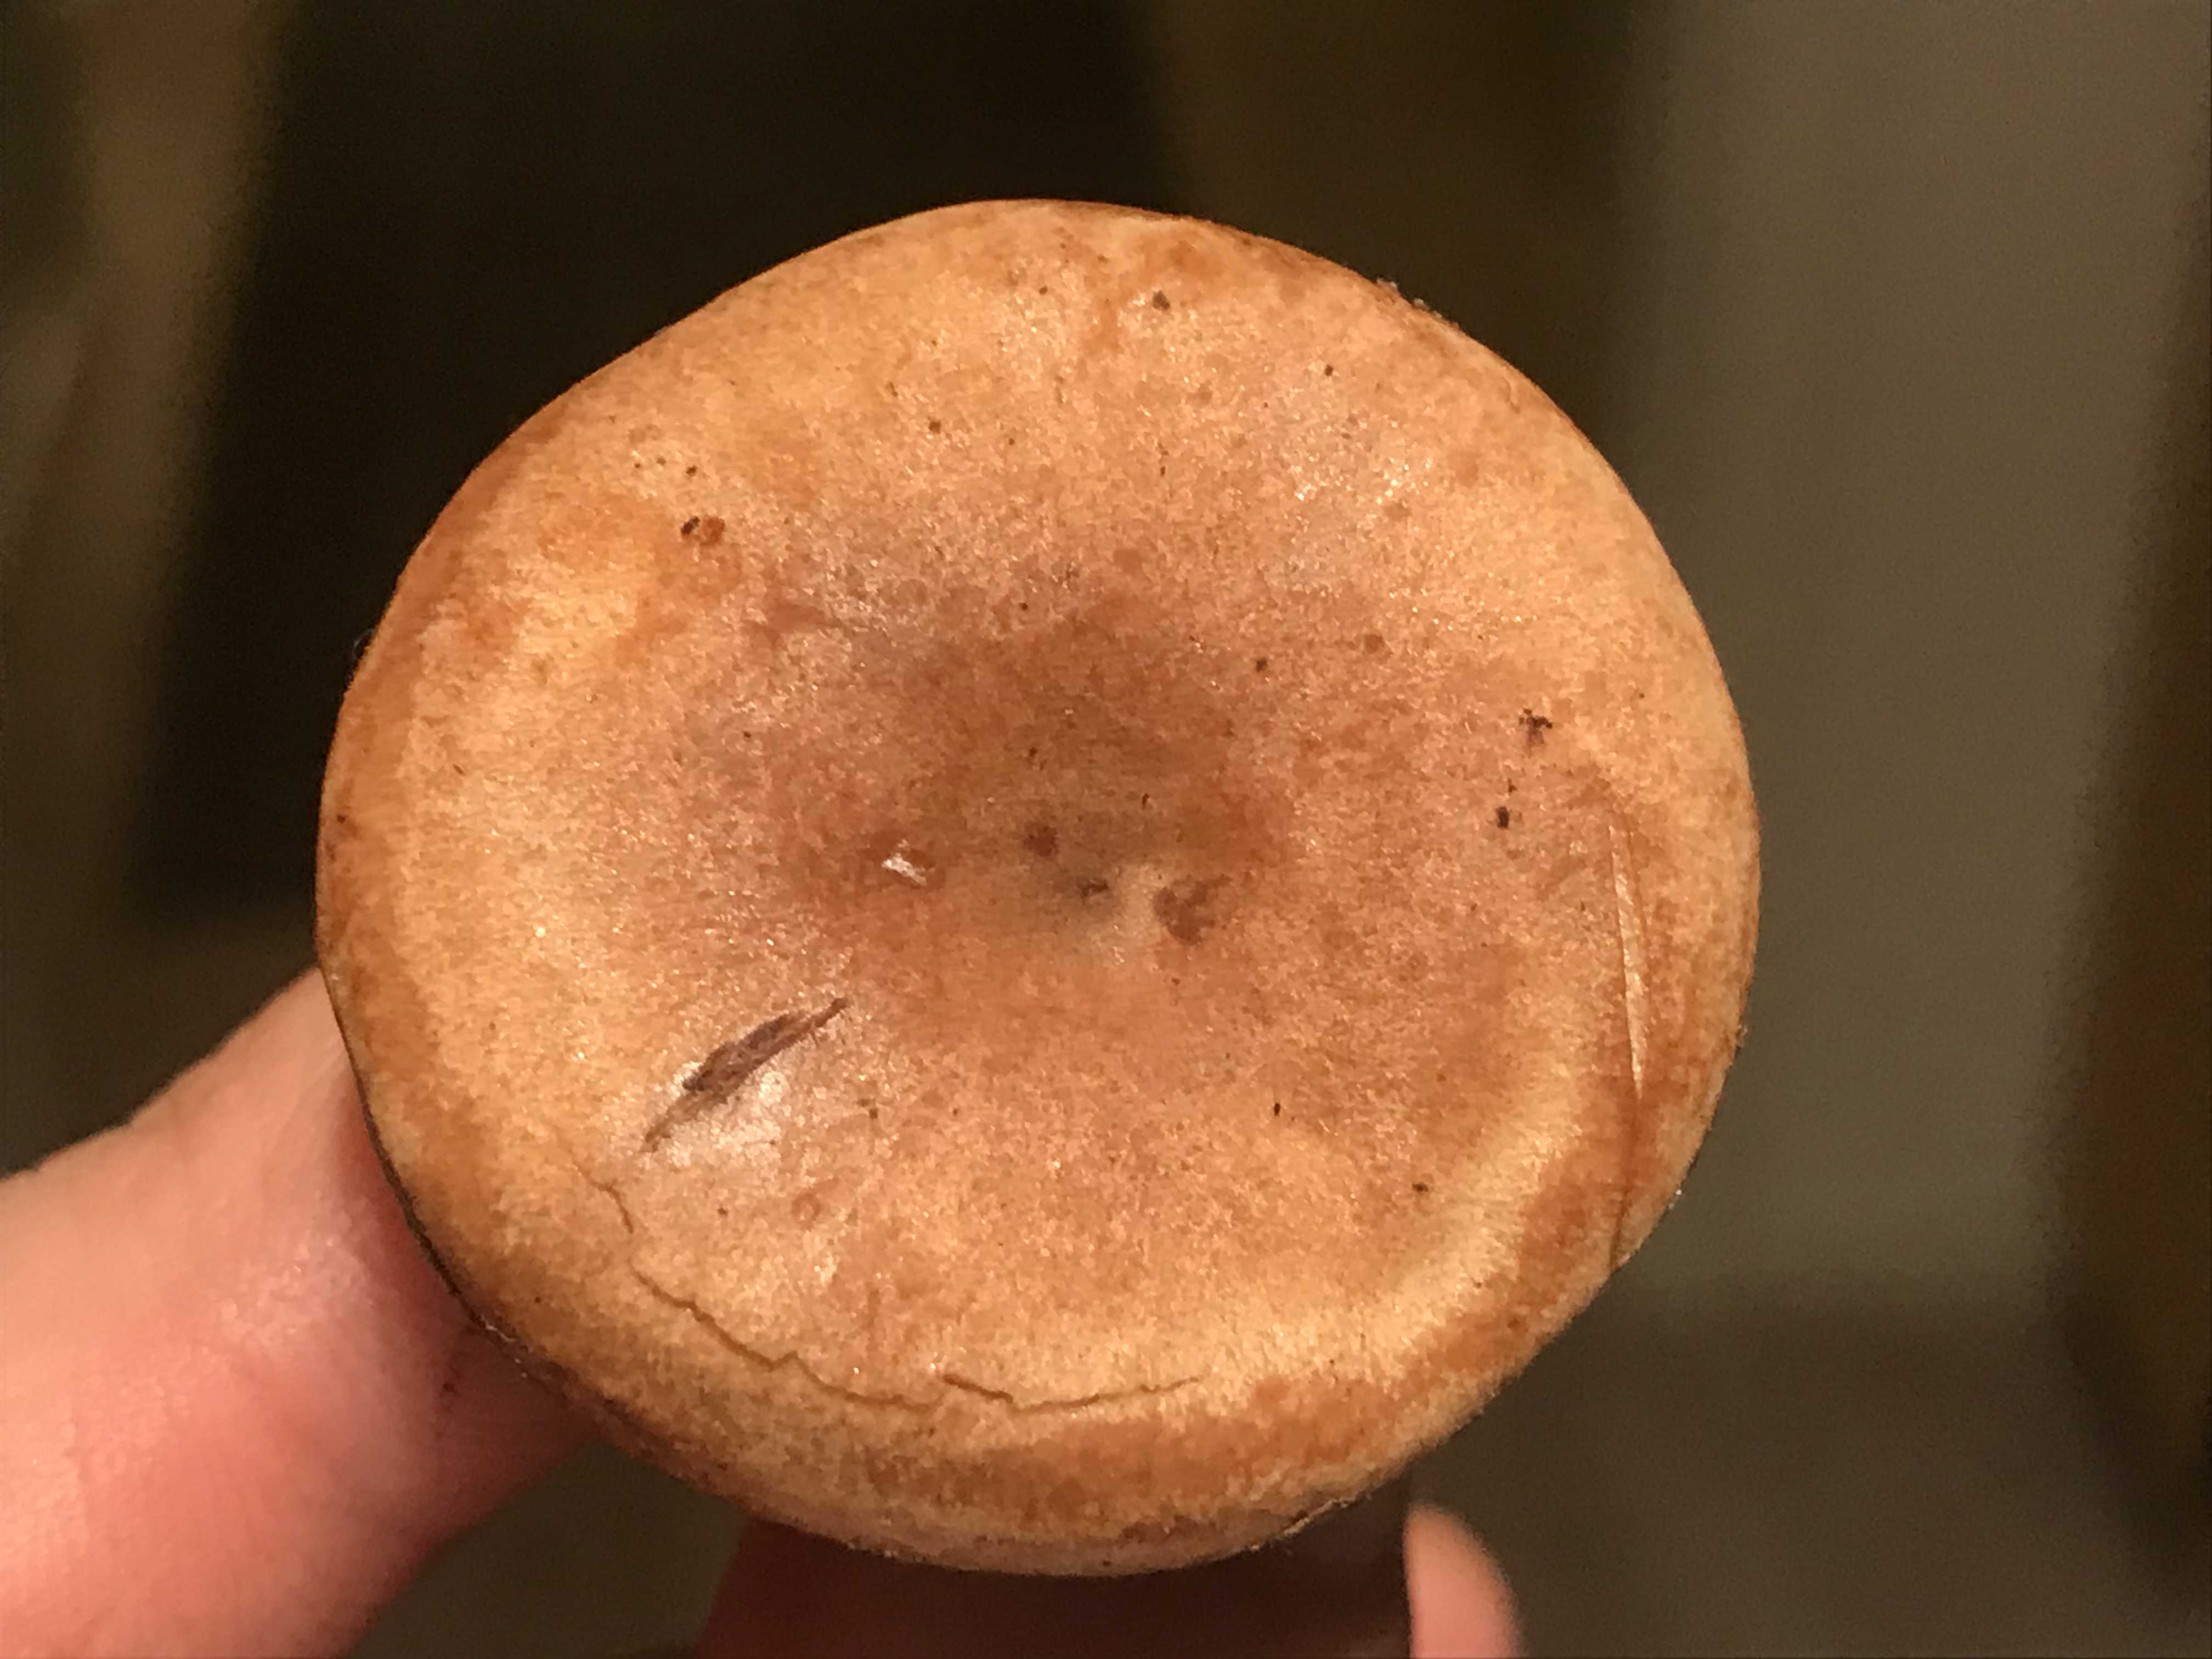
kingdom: Fungi
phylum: Basidiomycota
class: Agaricomycetes
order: Russulales
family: Russulaceae
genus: Lactarius
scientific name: Lactarius lacunarum
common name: sump-mælkehat
